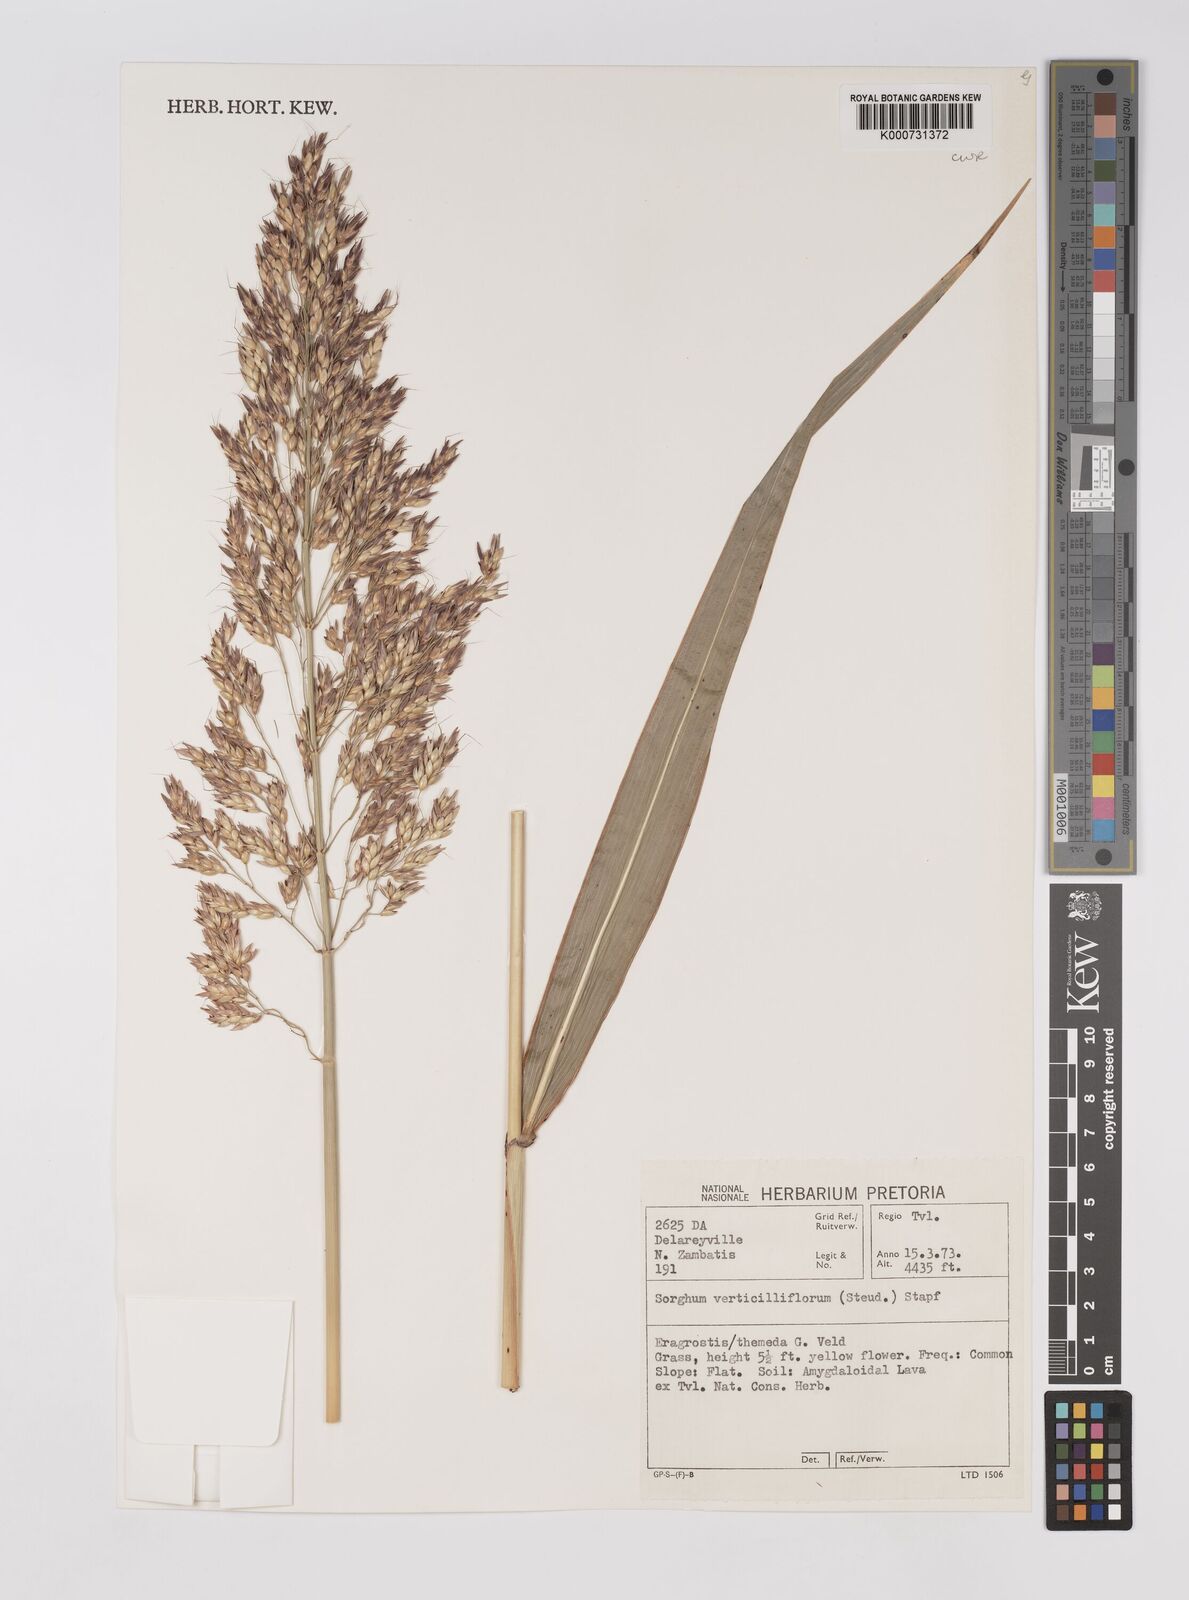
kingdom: Plantae
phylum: Tracheophyta
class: Liliopsida
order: Poales
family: Poaceae
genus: Sorghum
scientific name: Sorghum arundinaceum
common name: Sorghum
